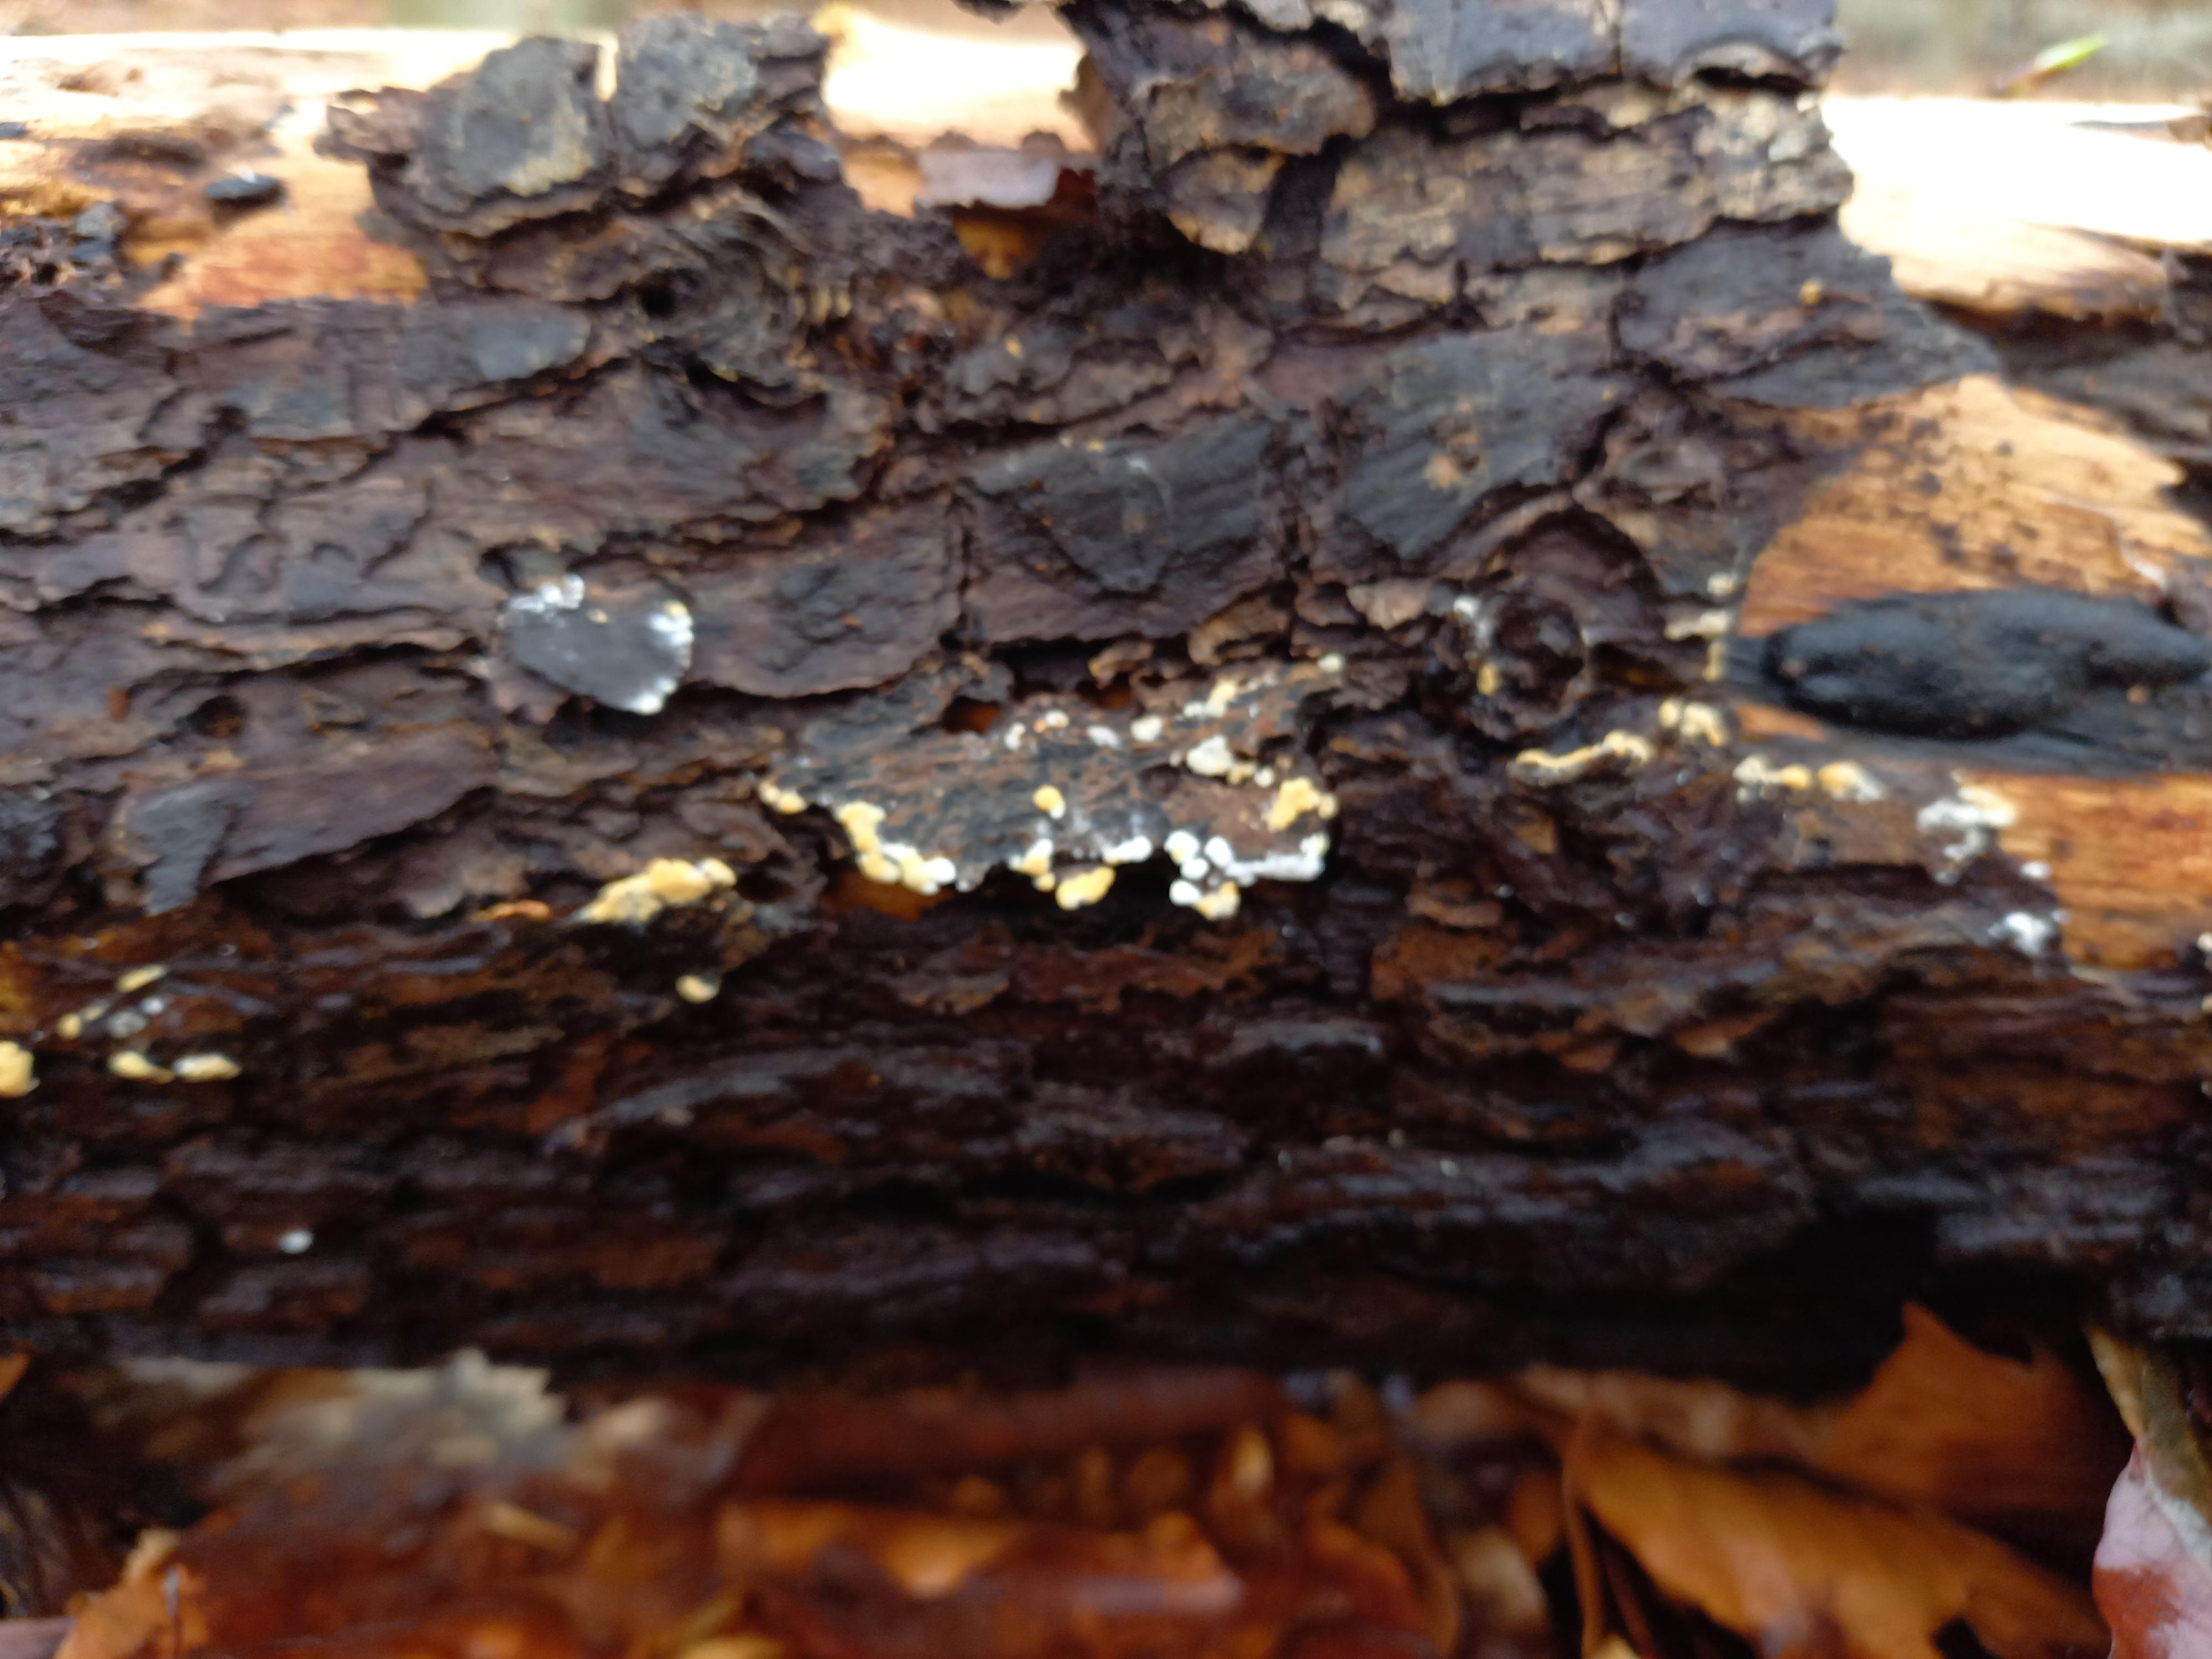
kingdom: Fungi
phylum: Basidiomycota
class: Agaricomycetes
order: Cantharellales
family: Botryobasidiaceae
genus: Botryobasidium
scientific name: Botryobasidium aureum
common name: gylden spindhinde
